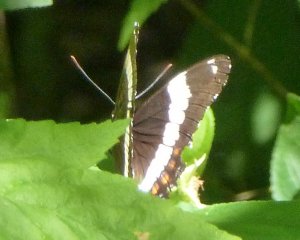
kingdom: Animalia
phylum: Arthropoda
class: Insecta
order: Lepidoptera
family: Nymphalidae
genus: Limenitis
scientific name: Limenitis arthemis
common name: Red-spotted Admiral
